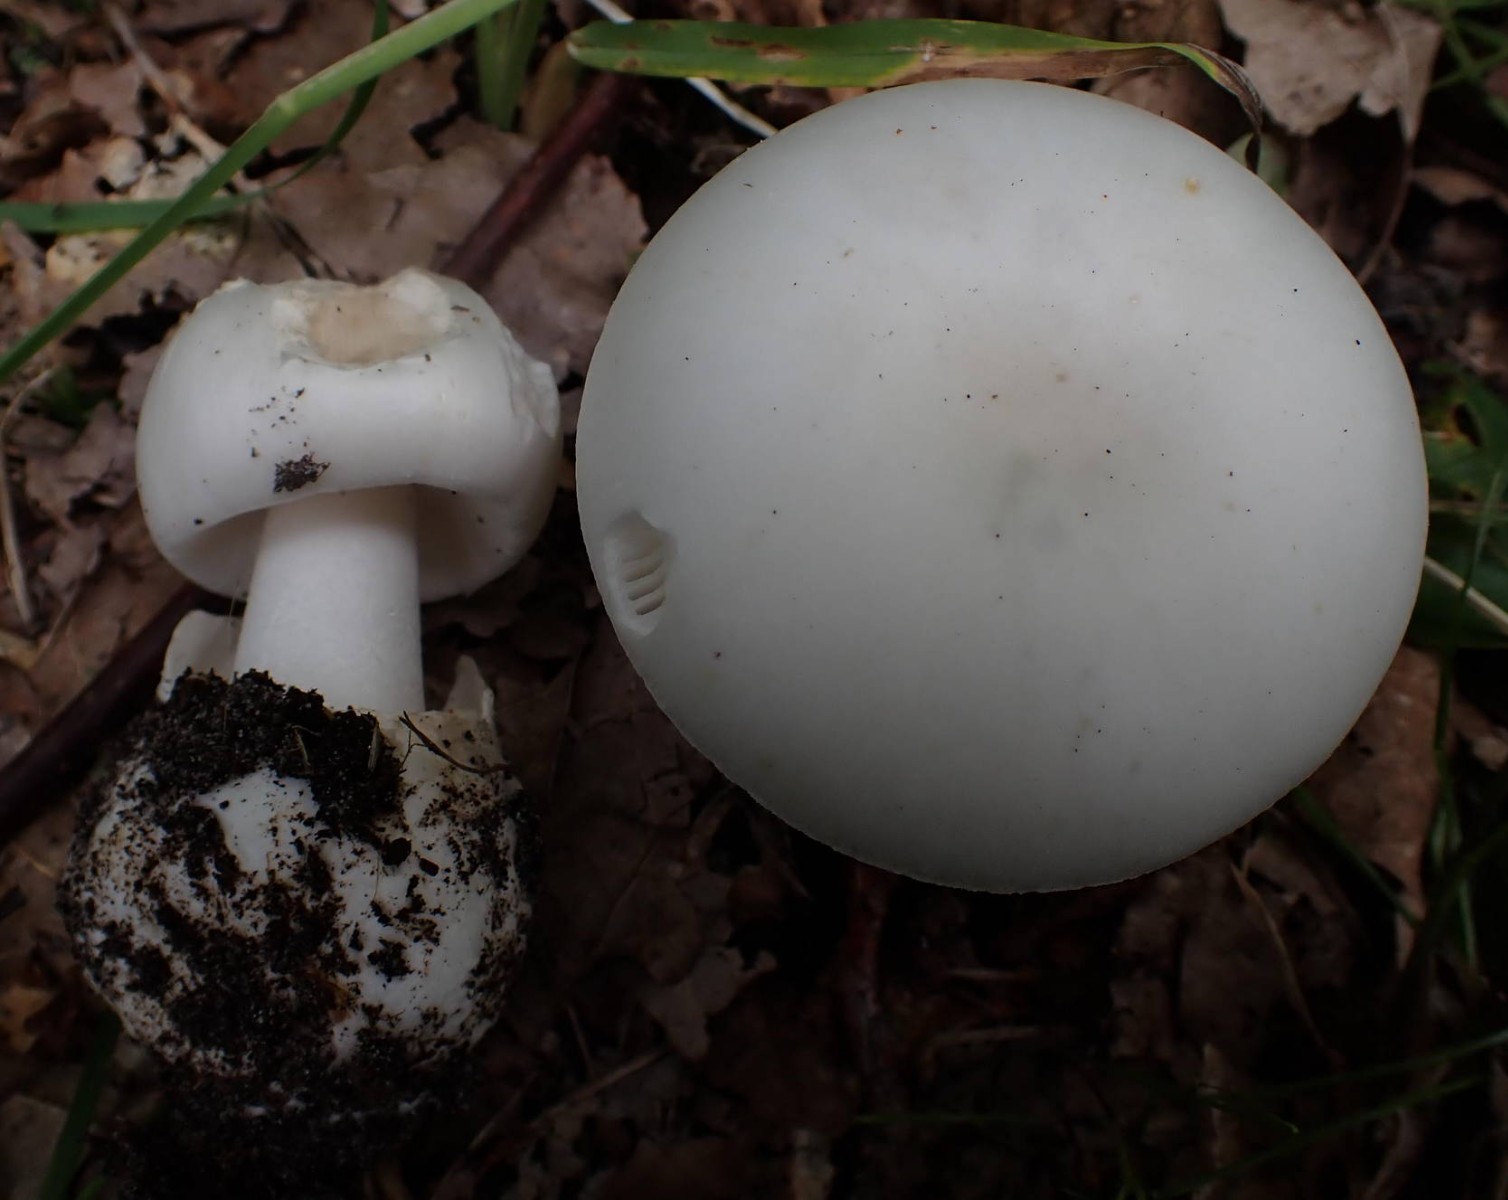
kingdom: Fungi
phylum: Basidiomycota
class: Agaricomycetes
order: Agaricales
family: Amanitaceae
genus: Amanita
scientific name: Amanita phalloides
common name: Death cap
